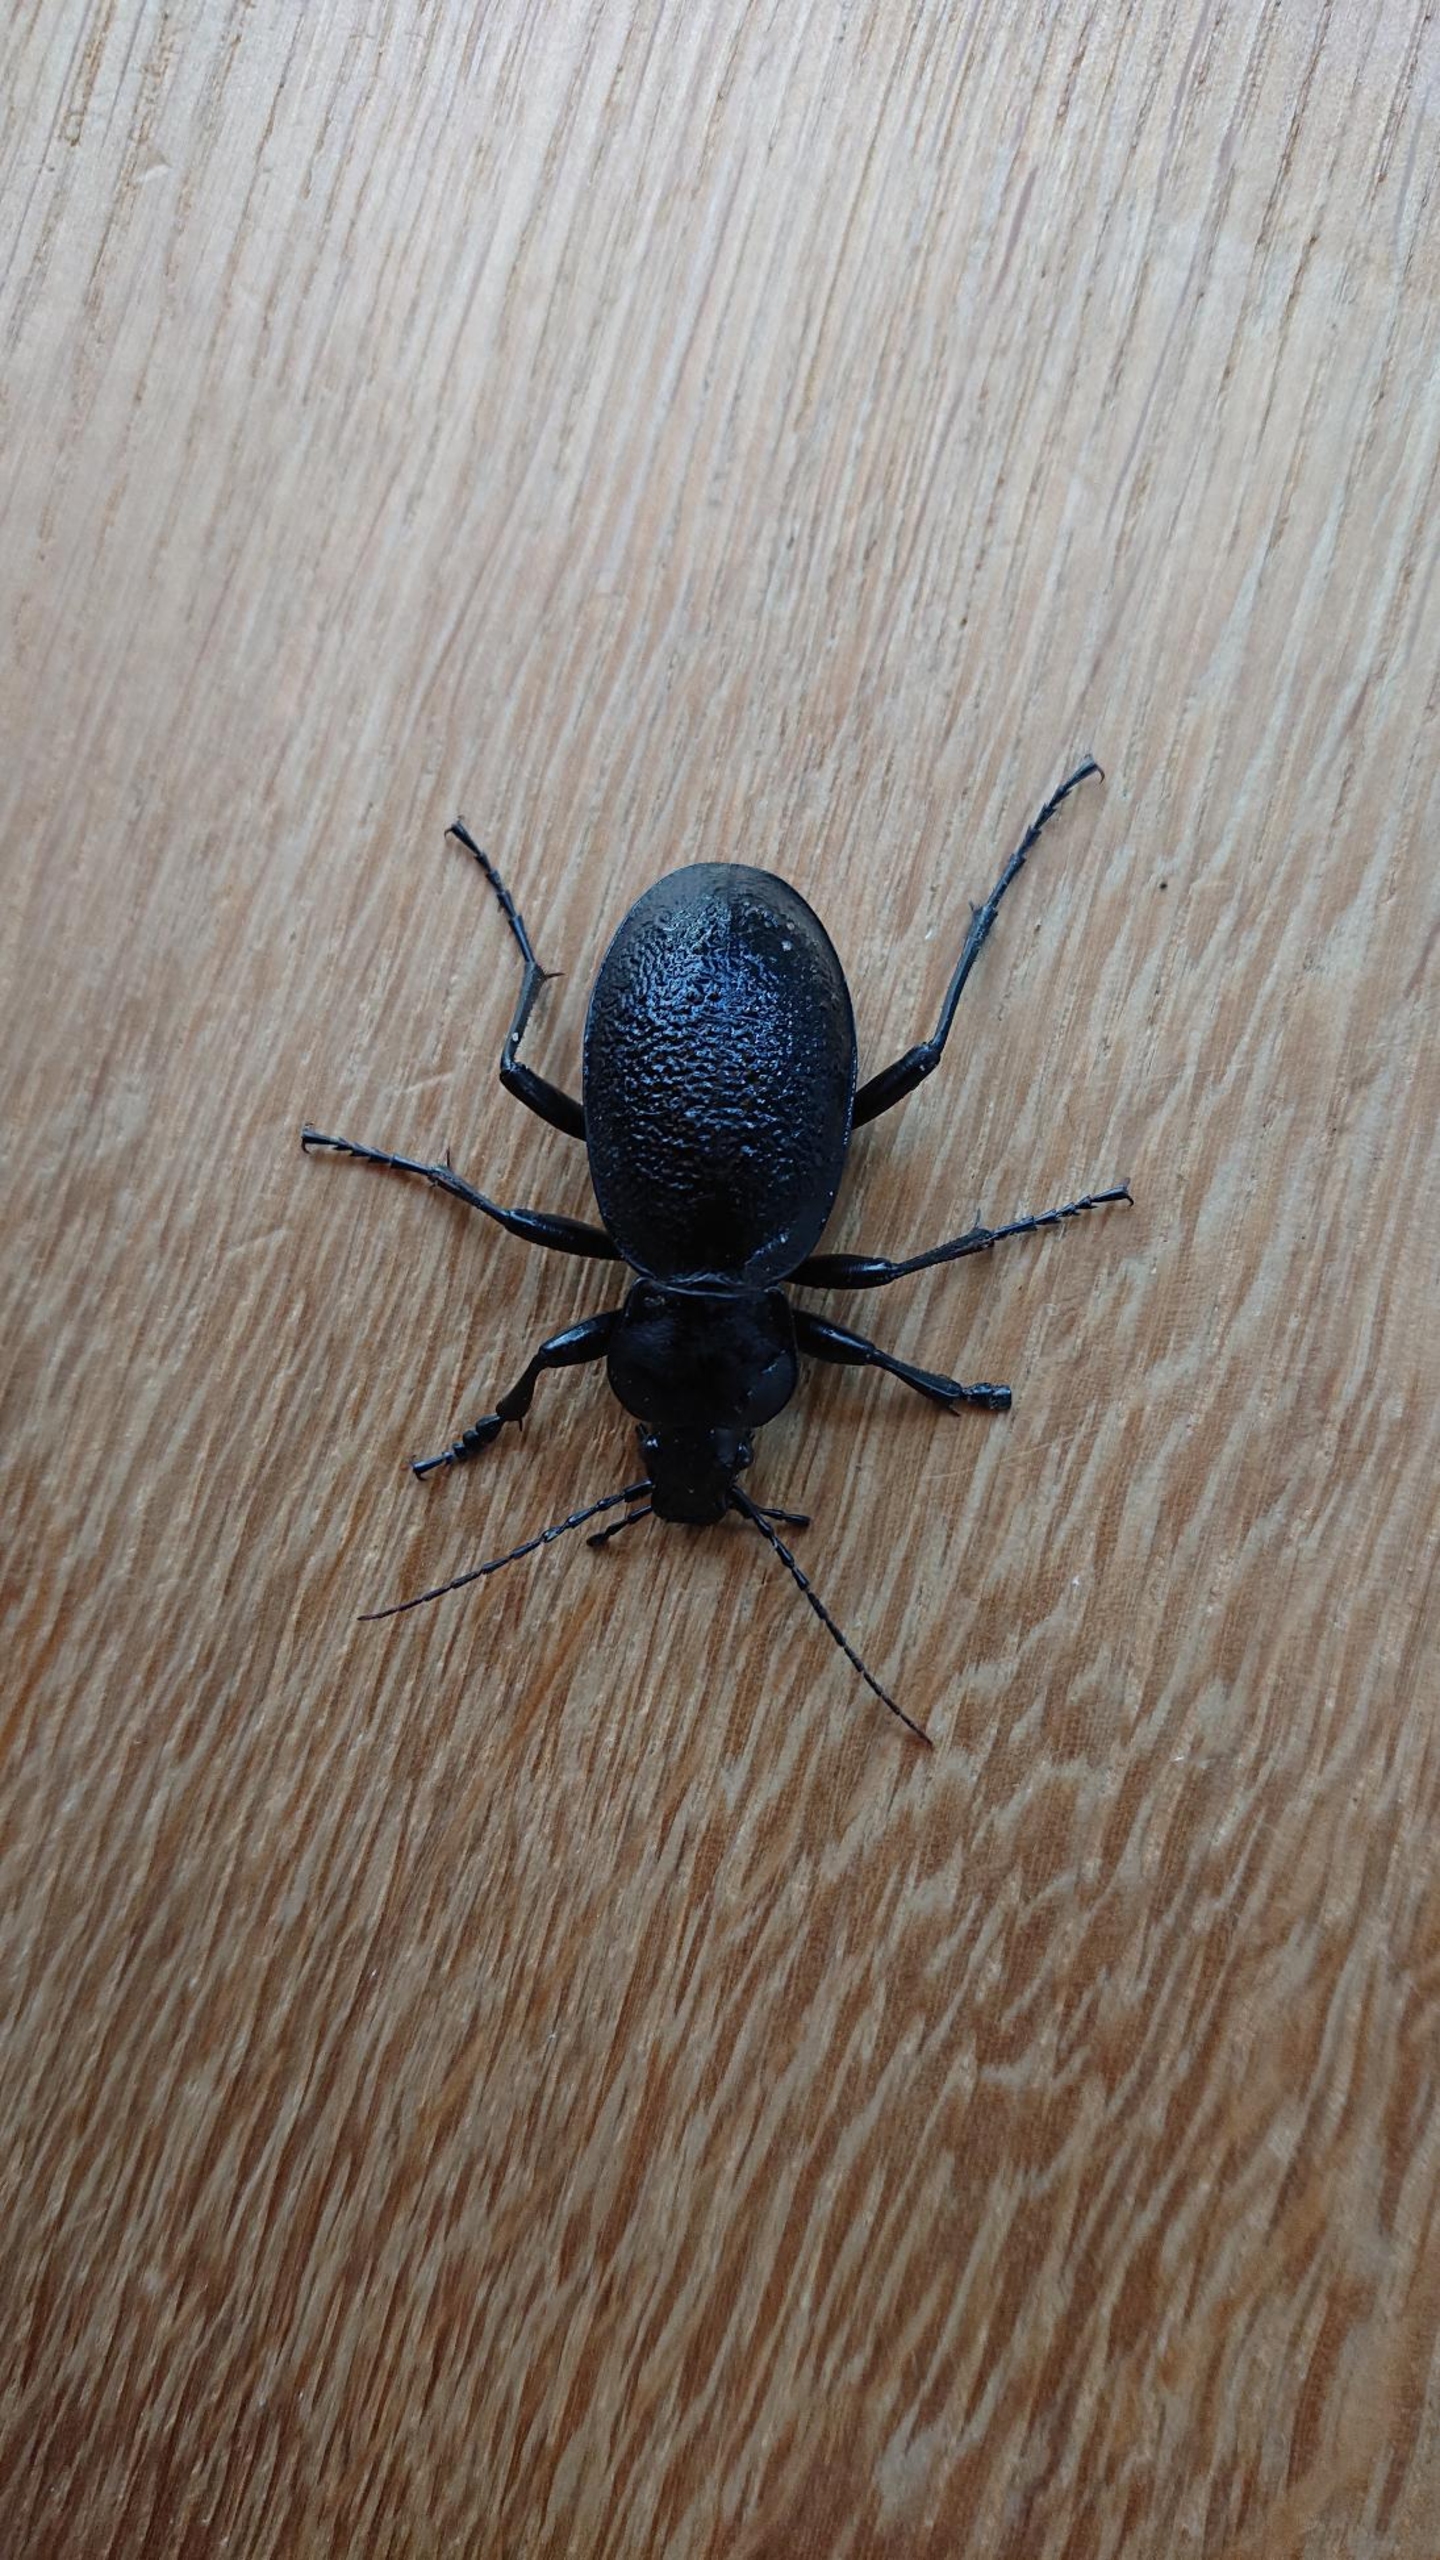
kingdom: Animalia
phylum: Arthropoda
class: Insecta
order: Coleoptera
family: Carabidae
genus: Carabus
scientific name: Carabus coriaceus
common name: Læderløber
